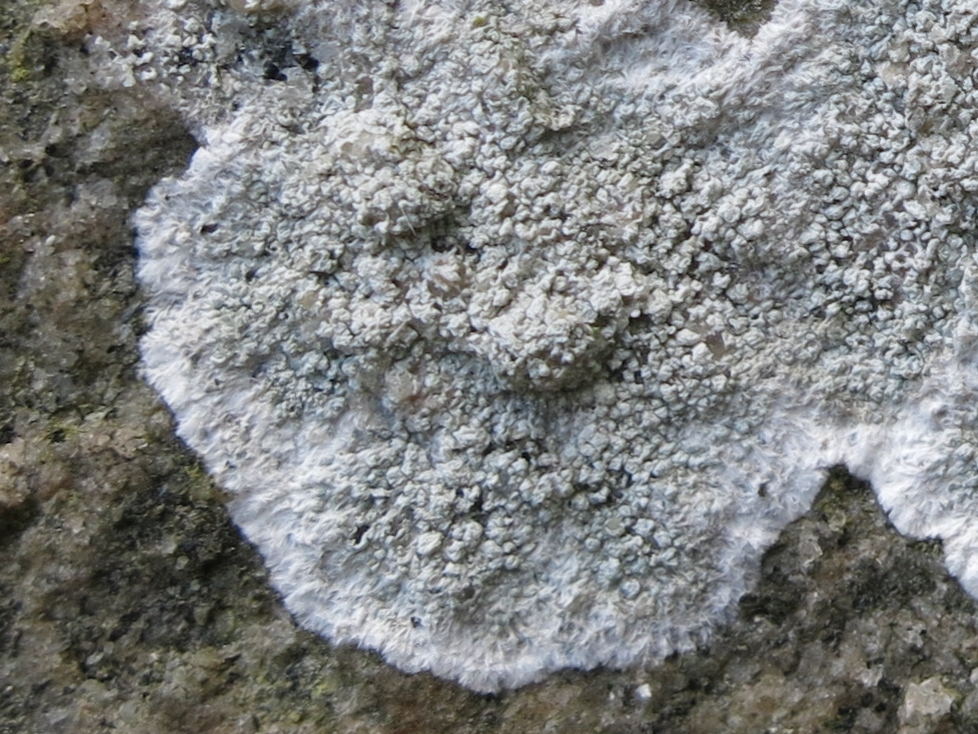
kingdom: Fungi
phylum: Ascomycota
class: Lecanoromycetes
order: Lecanorales
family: Haematommataceae
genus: Haematomma
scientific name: Haematomma ochroleucum
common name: gul trådkantlav
